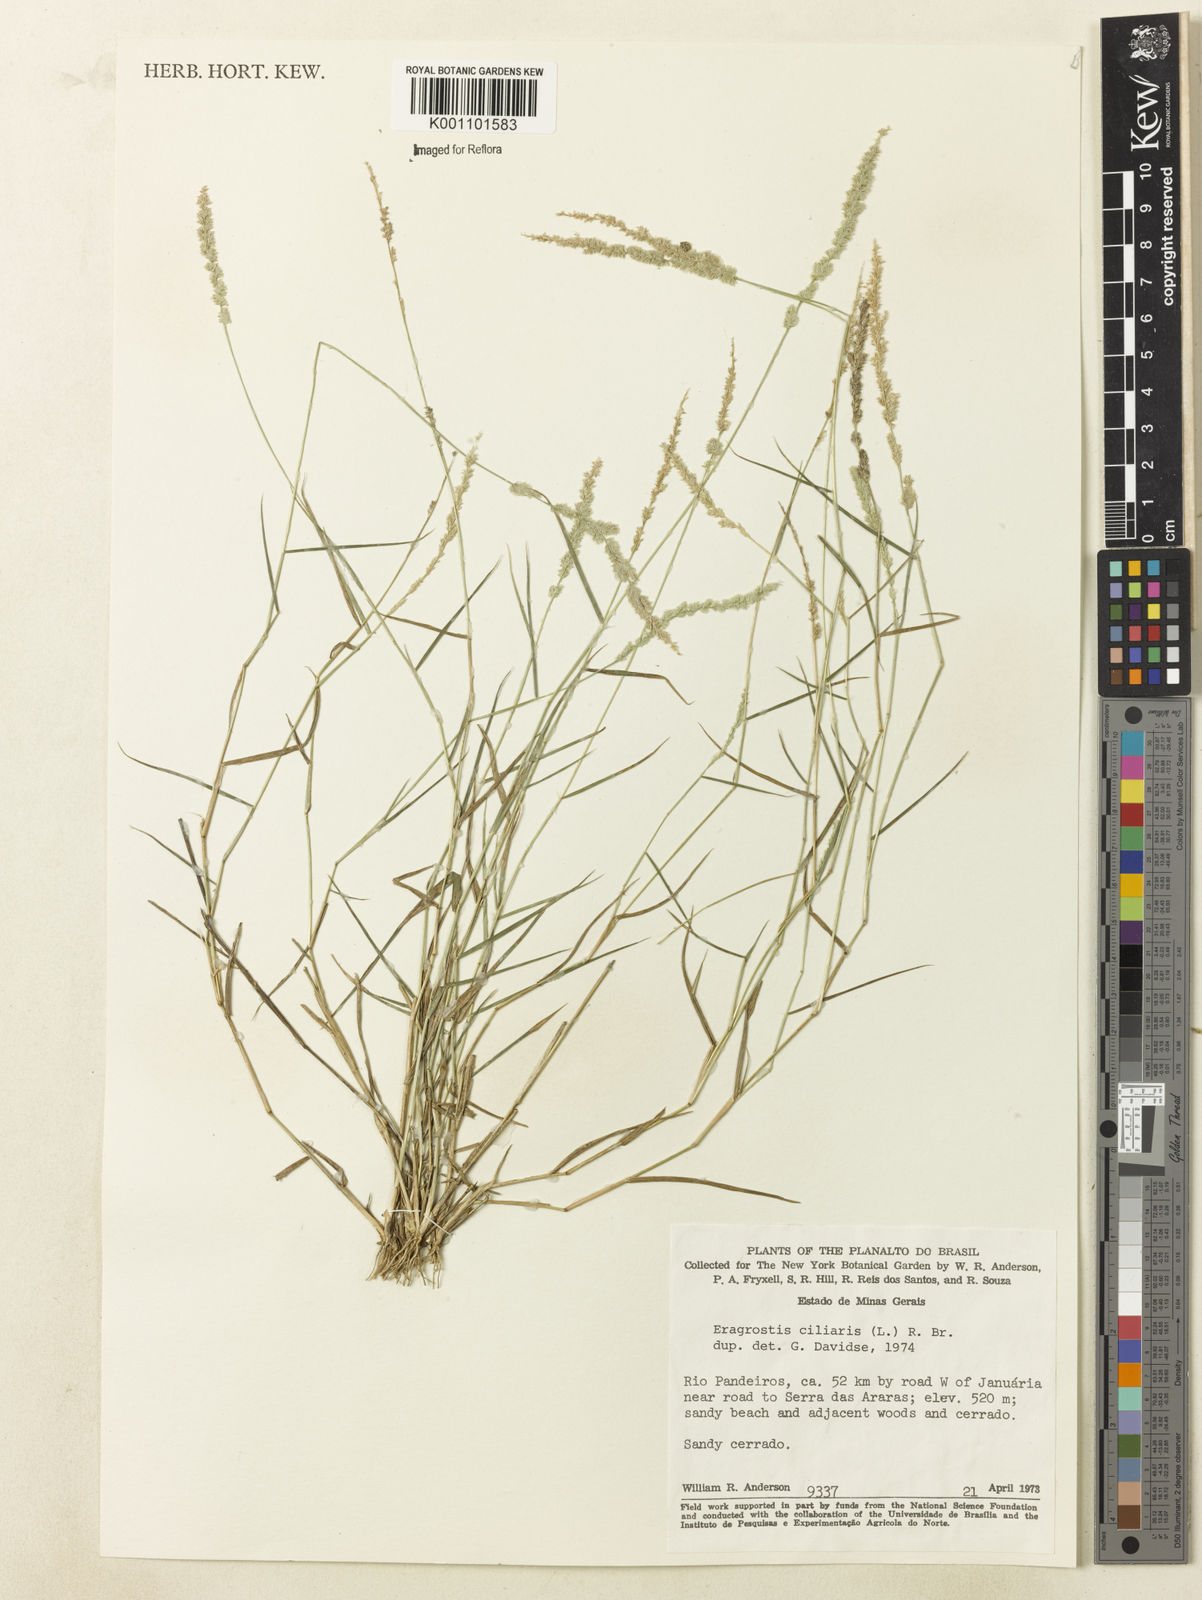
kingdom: Plantae
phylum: Tracheophyta
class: Liliopsida
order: Poales
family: Poaceae
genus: Eragrostis
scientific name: Eragrostis ciliaris
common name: Gophertail lovegrass
